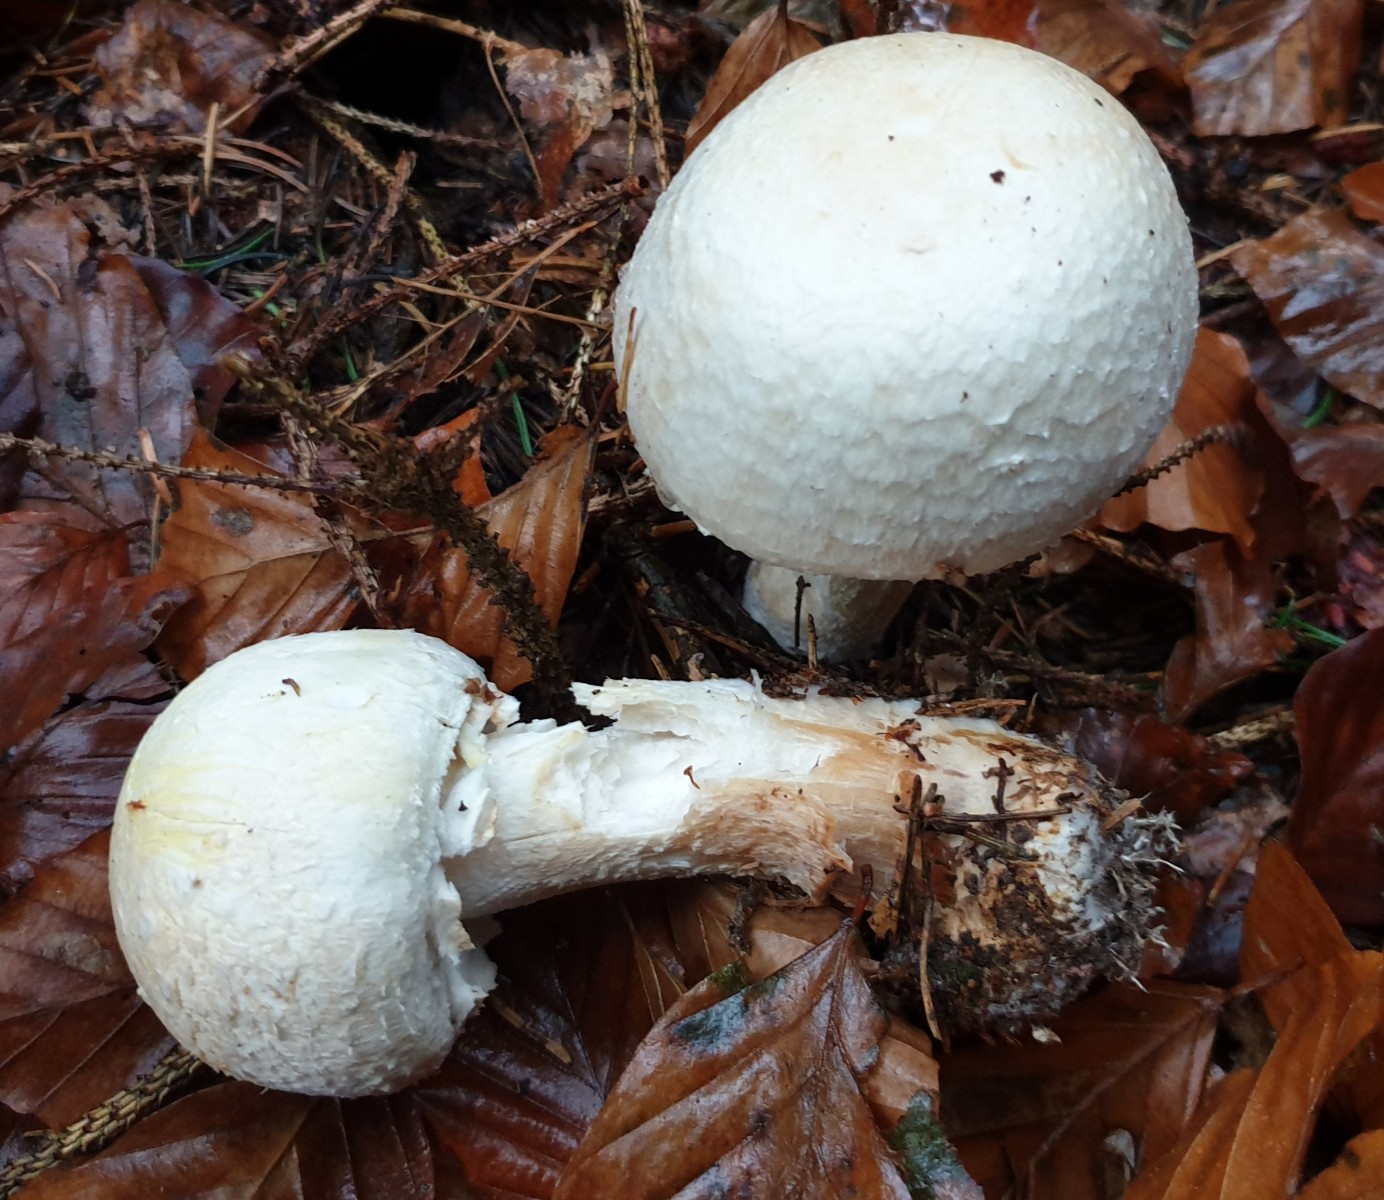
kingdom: Fungi
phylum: Basidiomycota
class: Agaricomycetes
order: Agaricales
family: Agaricaceae
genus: Agaricus
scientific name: Agaricus sylvicola
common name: gulhvid champignon
